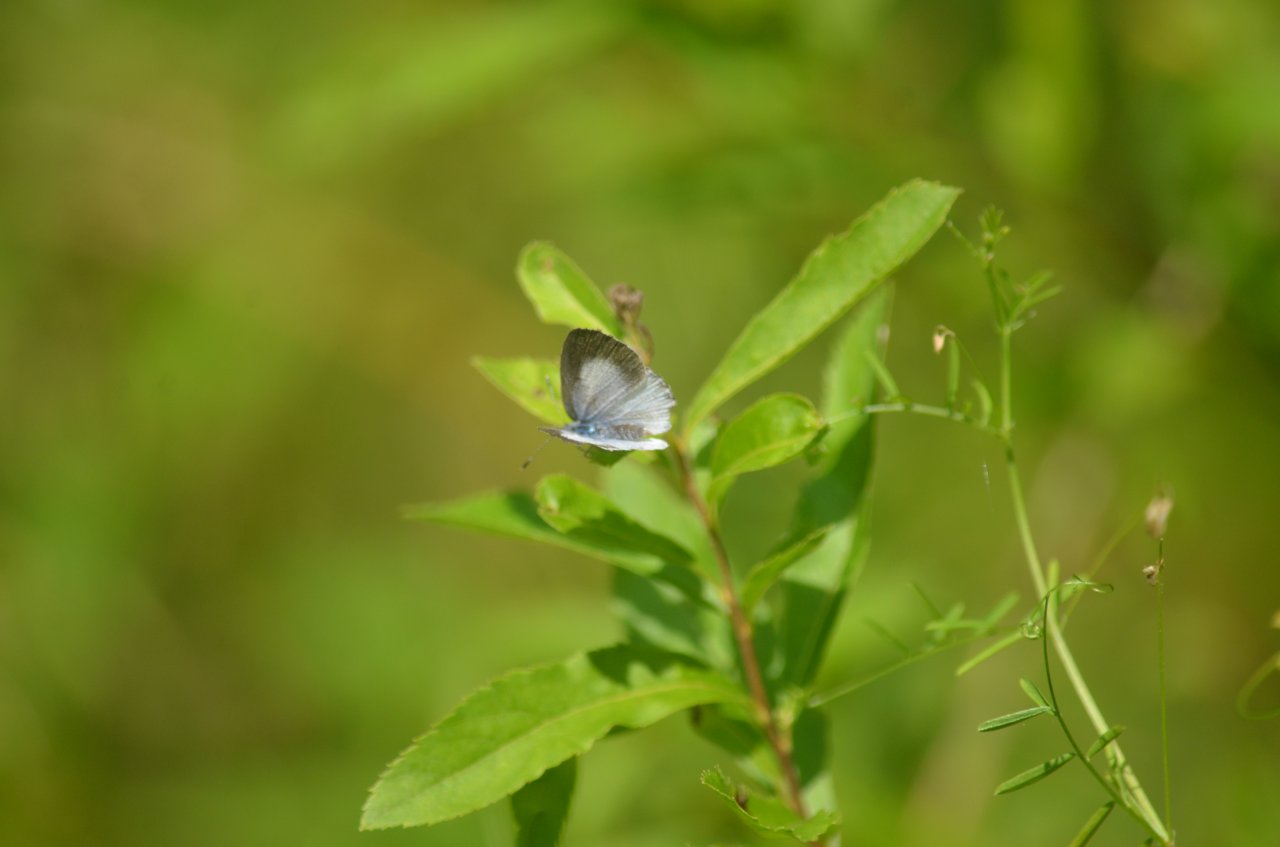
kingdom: Animalia
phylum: Arthropoda
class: Insecta
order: Lepidoptera
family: Lycaenidae
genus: Celastrina
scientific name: Celastrina
